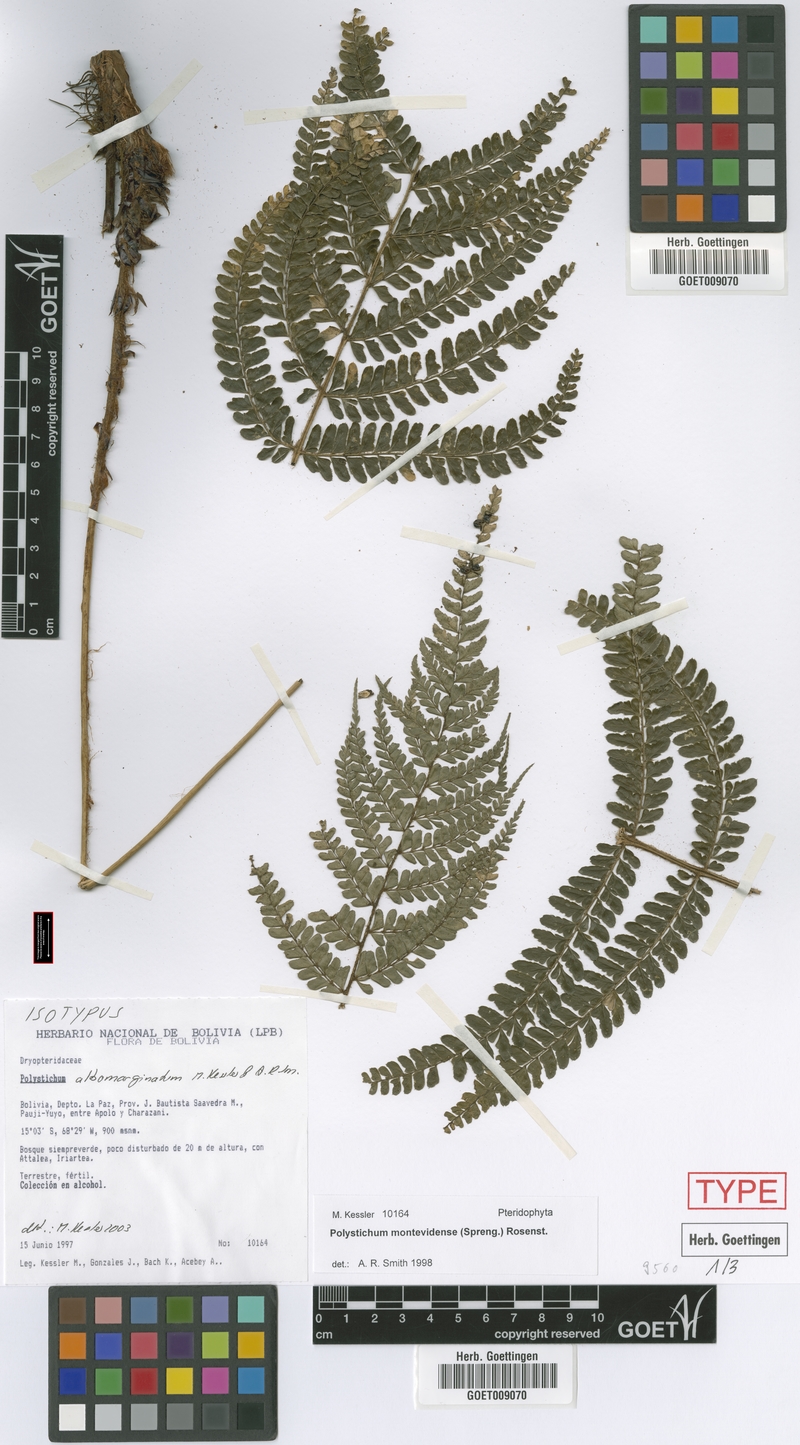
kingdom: Plantae
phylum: Tracheophyta
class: Polypodiopsida
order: Polypodiales
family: Dryopteridaceae
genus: Polystichum
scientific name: Polystichum albomarginatum
